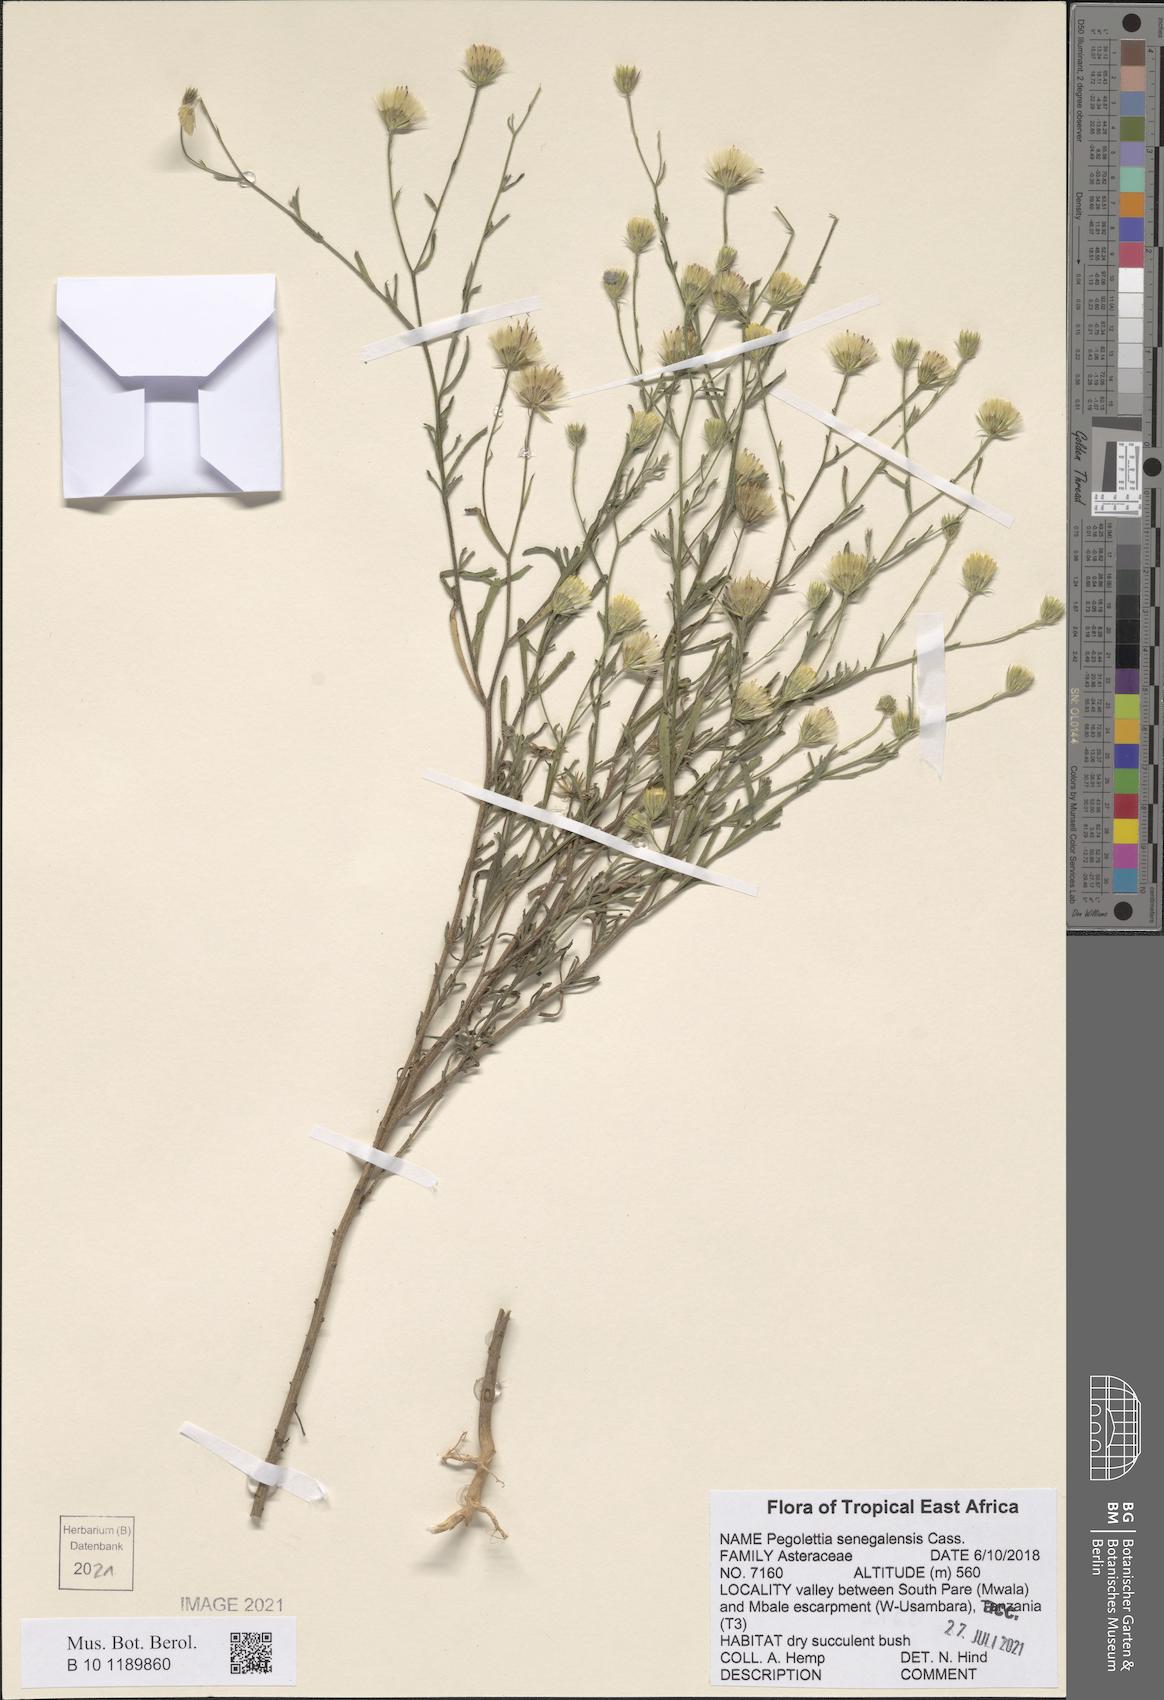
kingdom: Plantae
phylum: Tracheophyta
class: Magnoliopsida
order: Asterales
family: Asteraceae
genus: Pegolettia
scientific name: Pegolettia senegalensis
